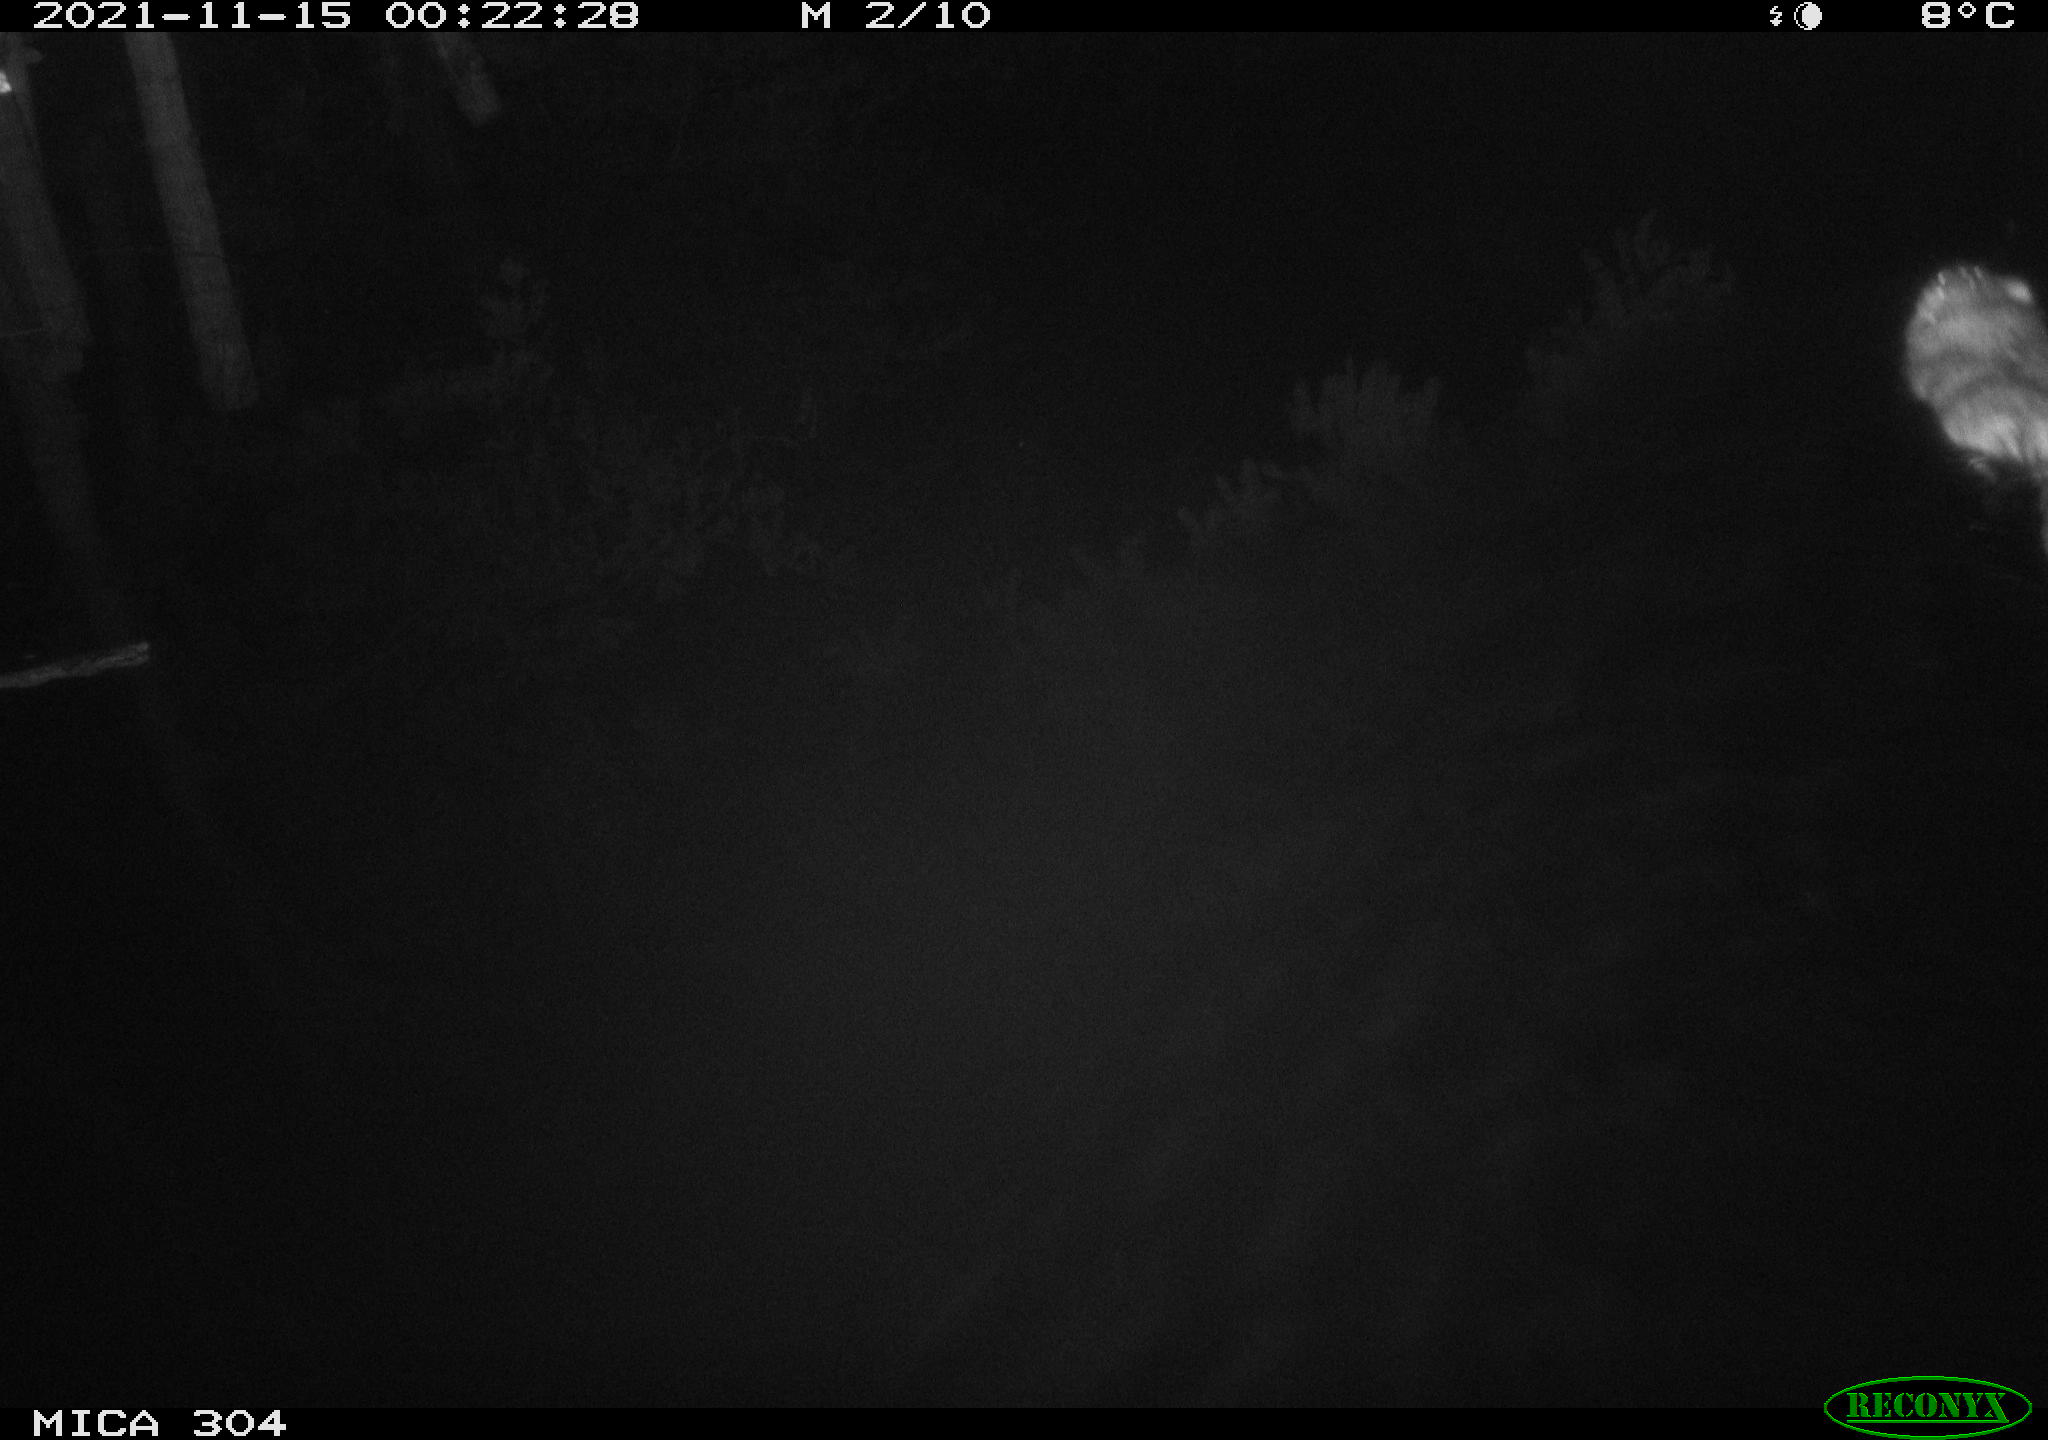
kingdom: Animalia
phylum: Chordata
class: Mammalia
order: Rodentia
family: Cricetidae
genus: Ondatra
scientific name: Ondatra zibethicus
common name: Muskrat
